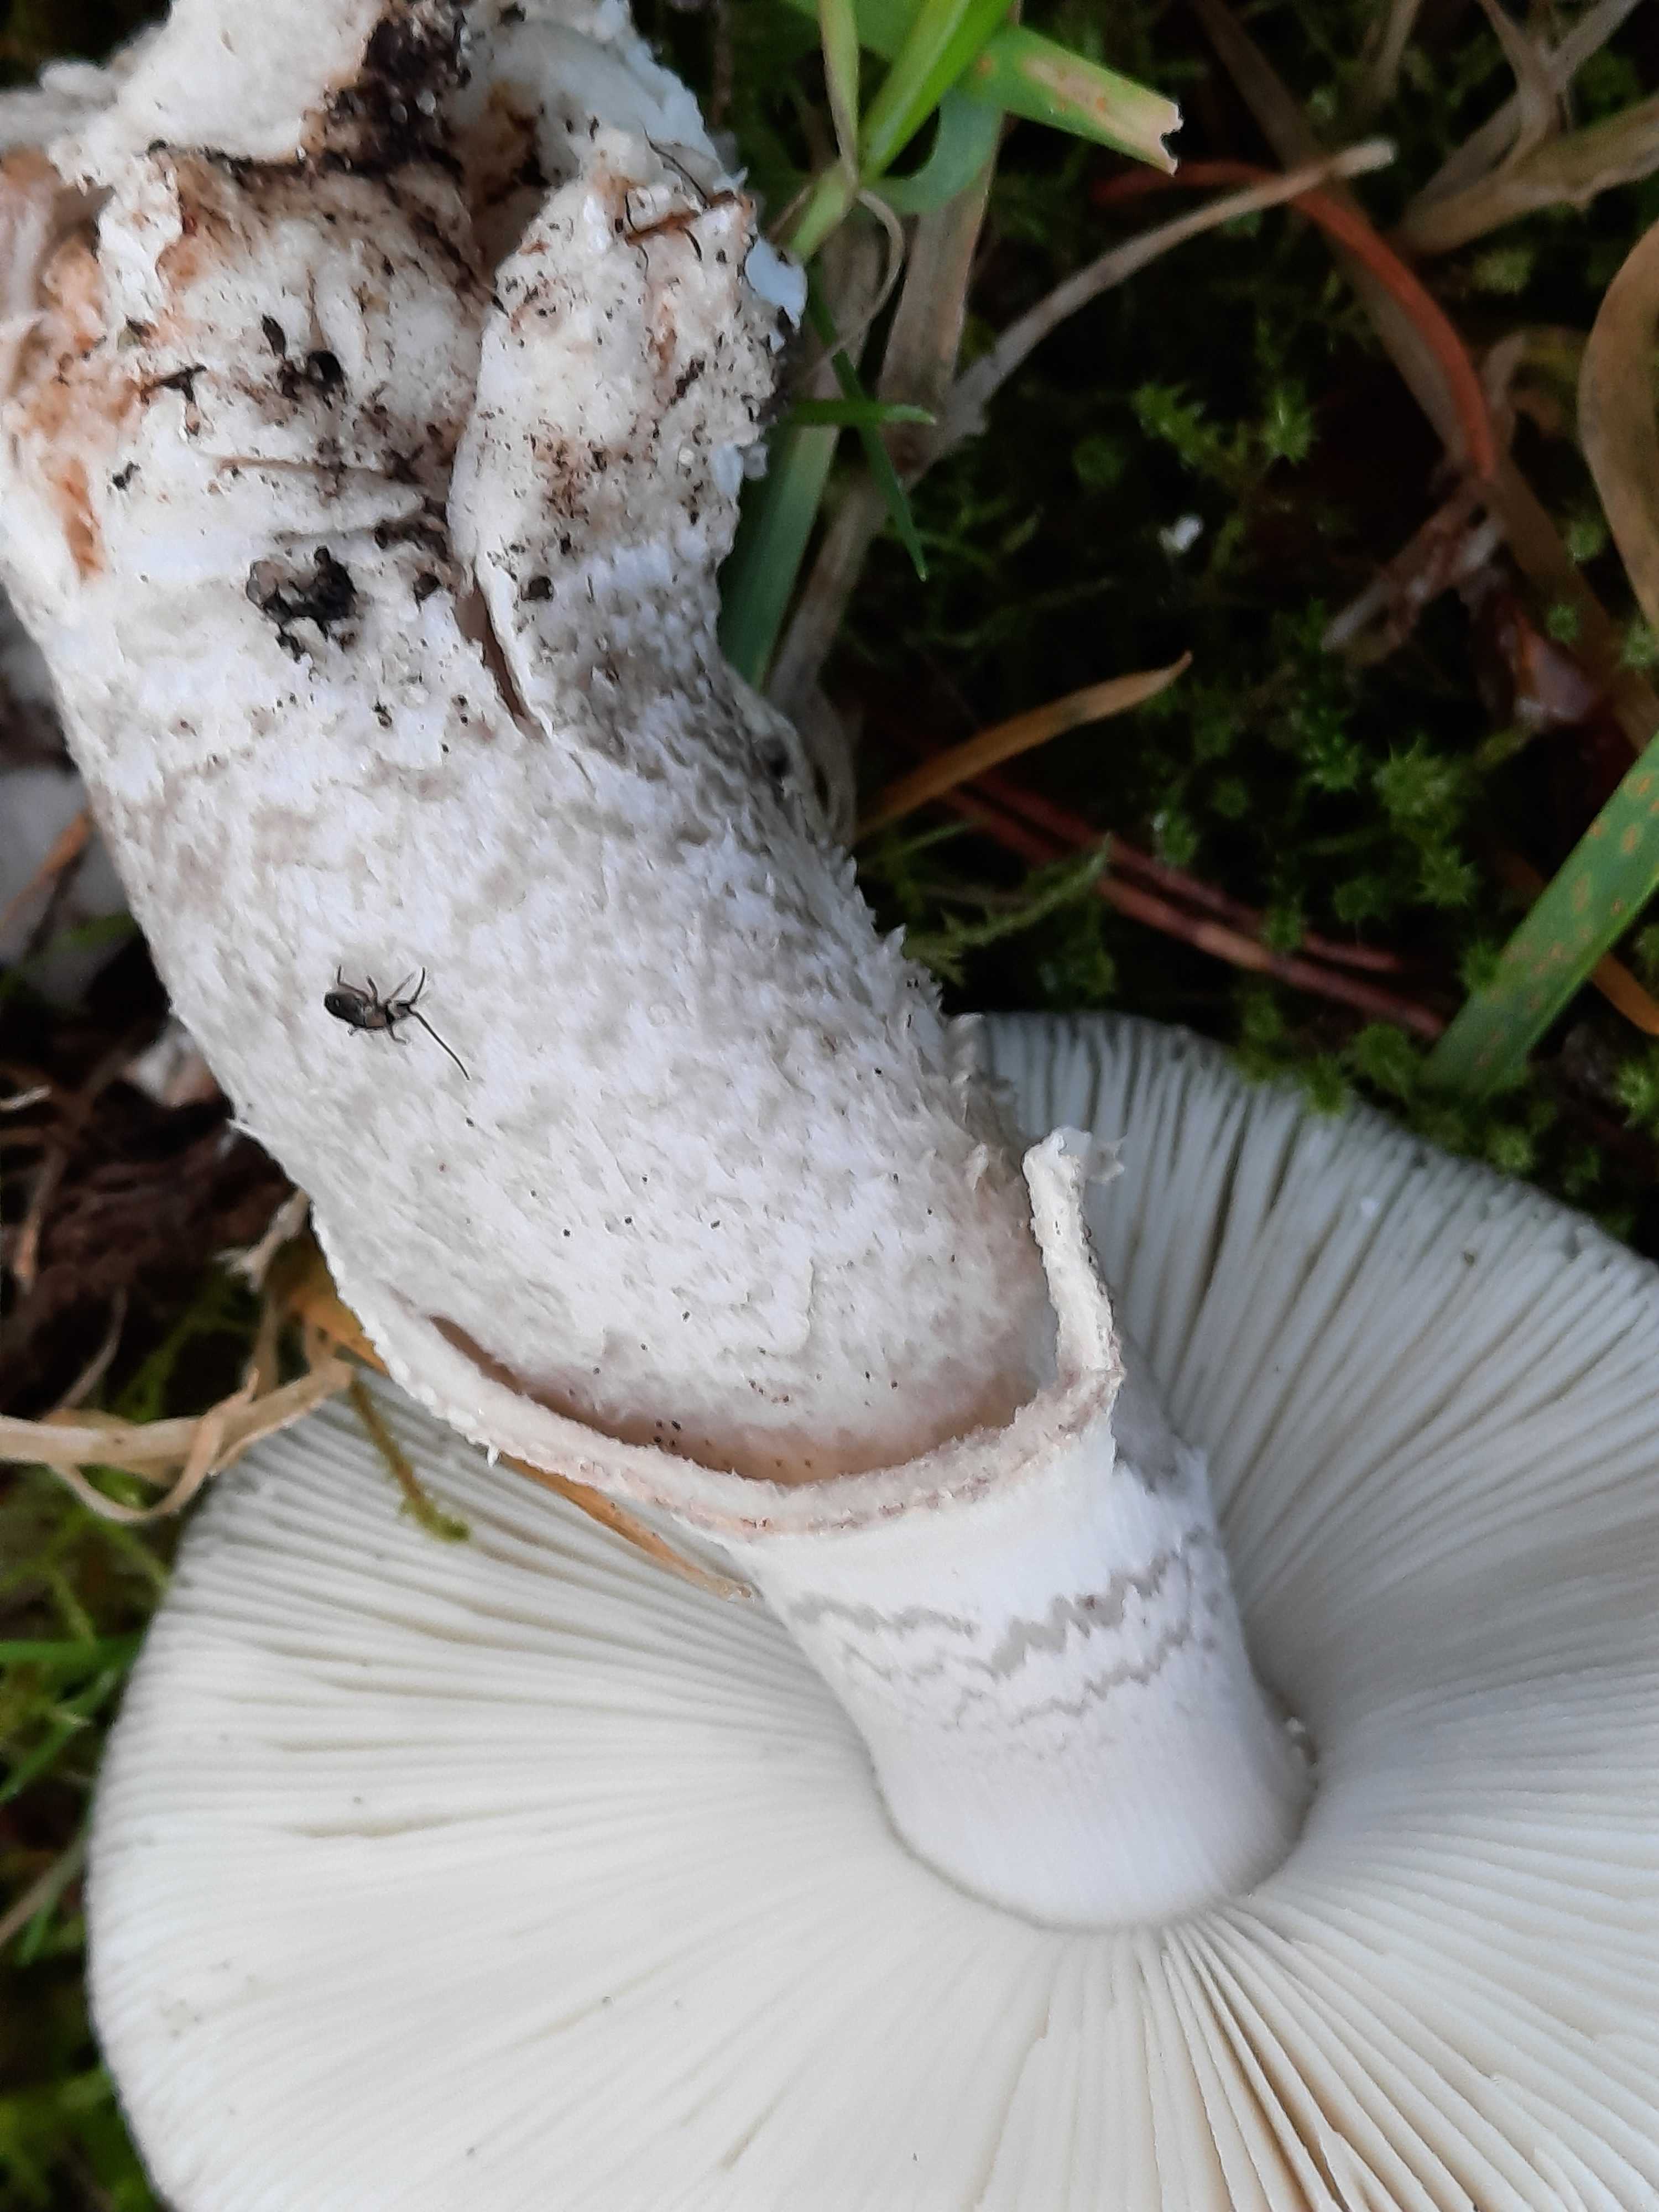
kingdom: Fungi
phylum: Basidiomycota
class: Agaricomycetes
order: Agaricales
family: Amanitaceae
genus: Amanita
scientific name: Amanita
